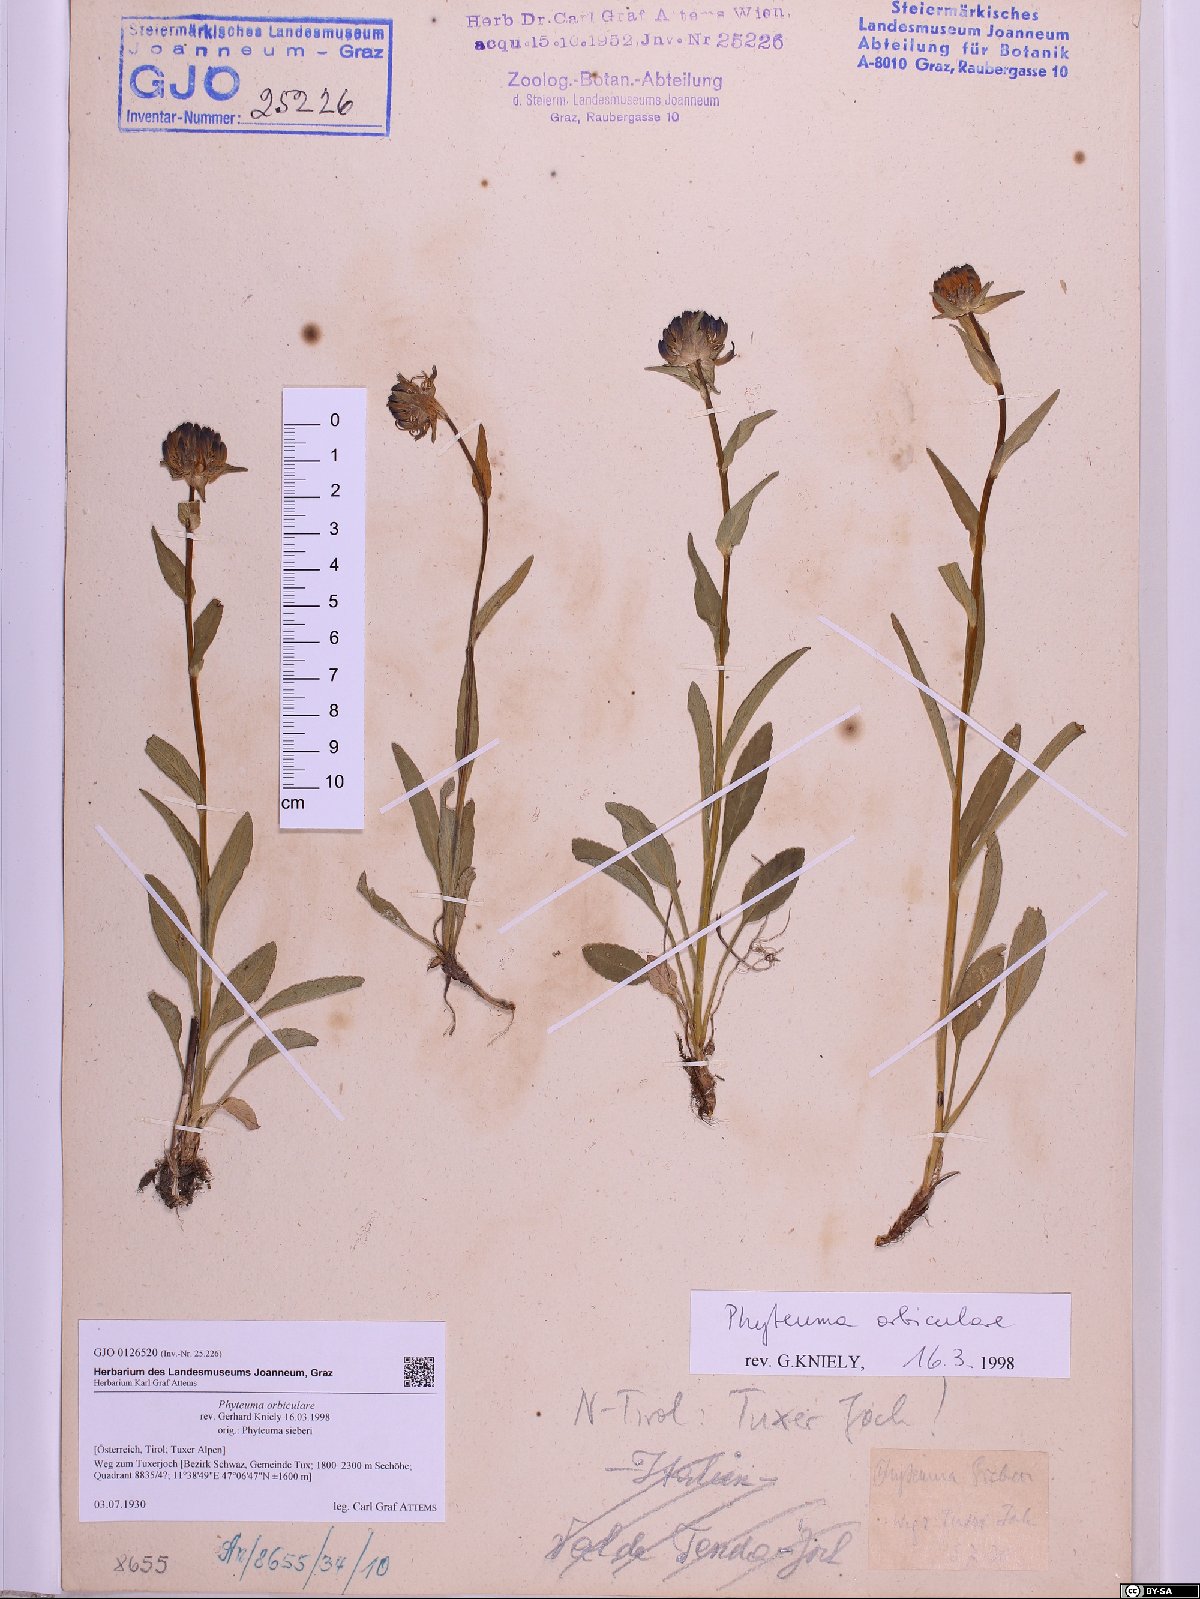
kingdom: Plantae
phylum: Tracheophyta
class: Magnoliopsida
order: Asterales
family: Campanulaceae
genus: Phyteuma
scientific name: Phyteuma orbiculare
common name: Round-headed rampion
